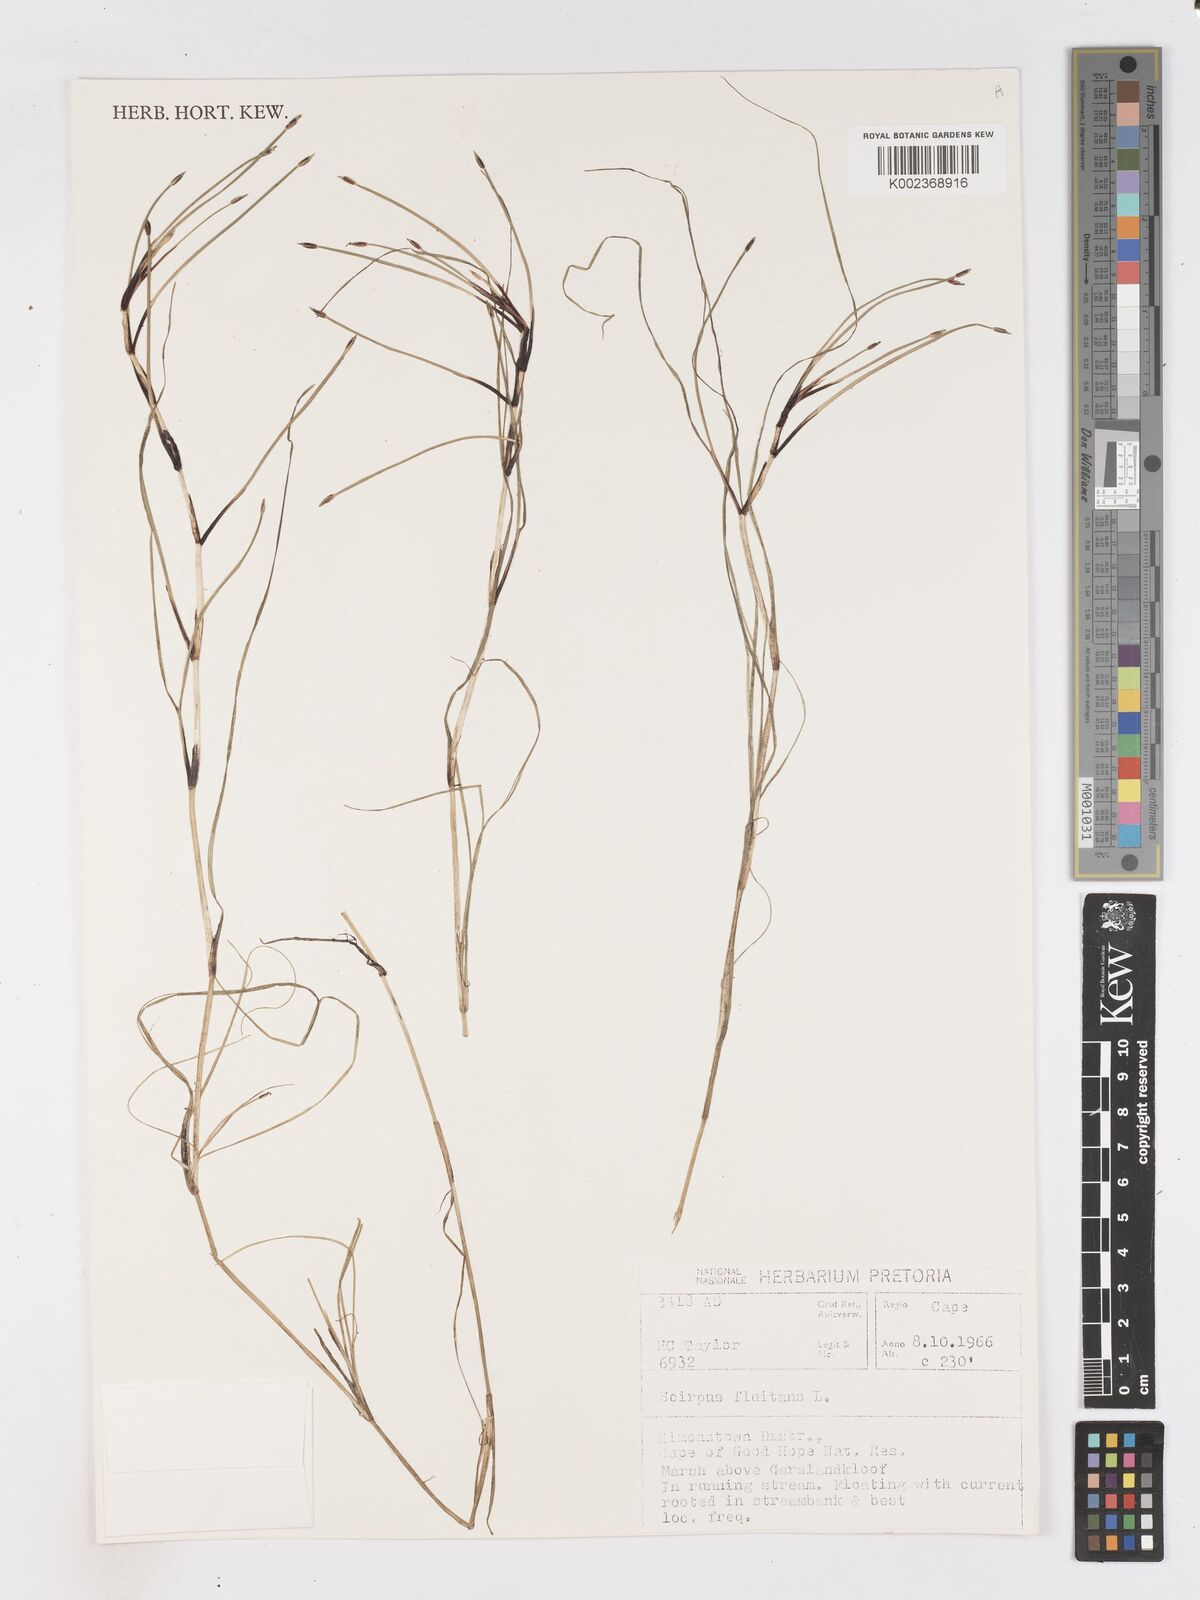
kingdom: Plantae
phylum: Tracheophyta
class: Liliopsida
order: Poales
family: Cyperaceae
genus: Isolepis
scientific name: Isolepis fluitans
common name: Floating club-rush
